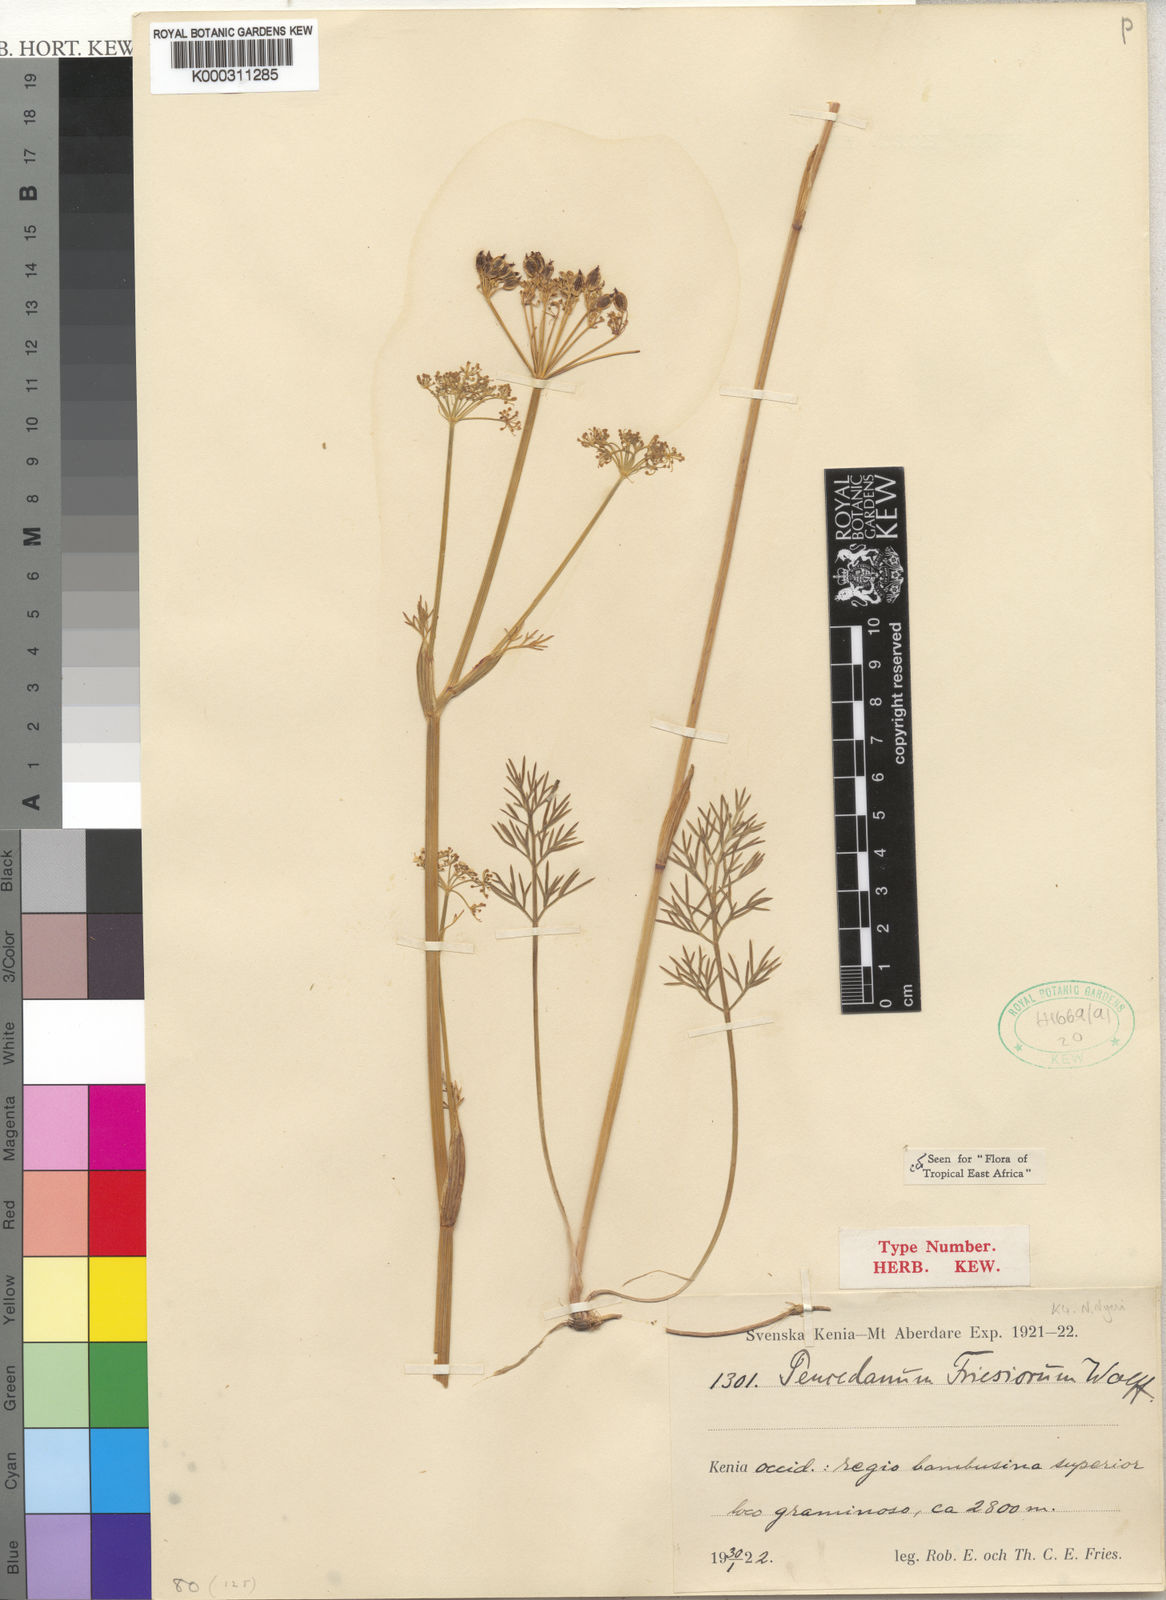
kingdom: Plantae
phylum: Tracheophyta
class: Magnoliopsida
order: Apiales
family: Apiaceae
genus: Afrosciadium
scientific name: Afrosciadium friesiorum
